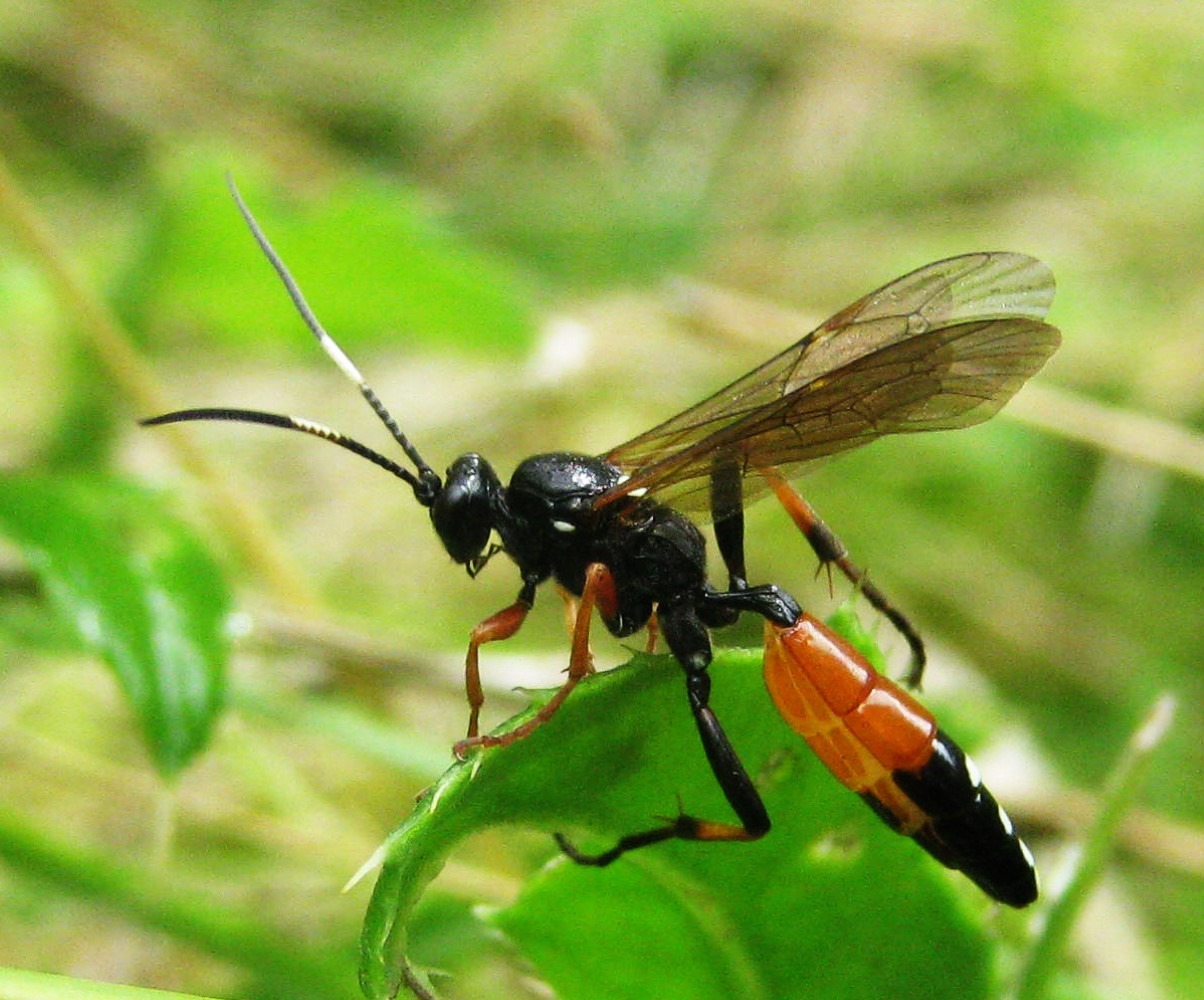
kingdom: Animalia
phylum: Arthropoda
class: Insecta
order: Hymenoptera
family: Ichneumonidae
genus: Diphyus
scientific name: Diphyus raptorius
